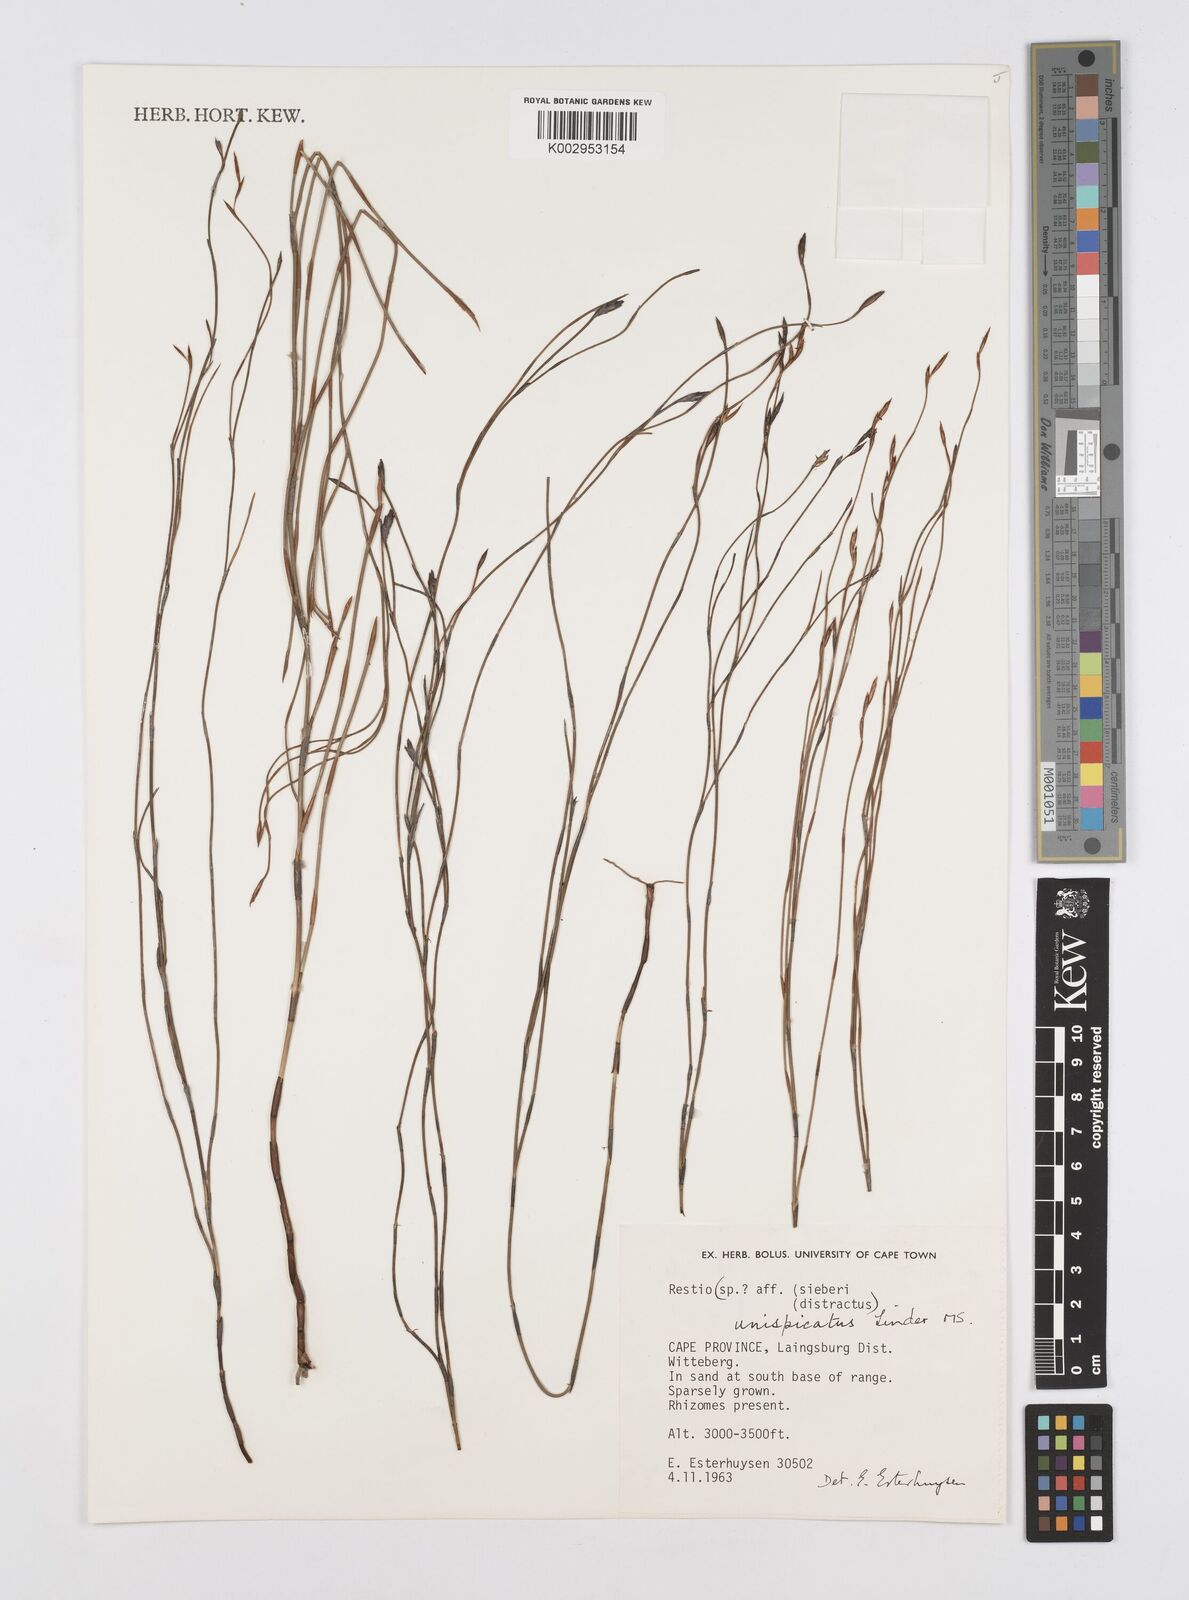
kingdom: Plantae
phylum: Tracheophyta
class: Liliopsida
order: Poales
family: Restionaceae
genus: Restio
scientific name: Restio unispicatus
